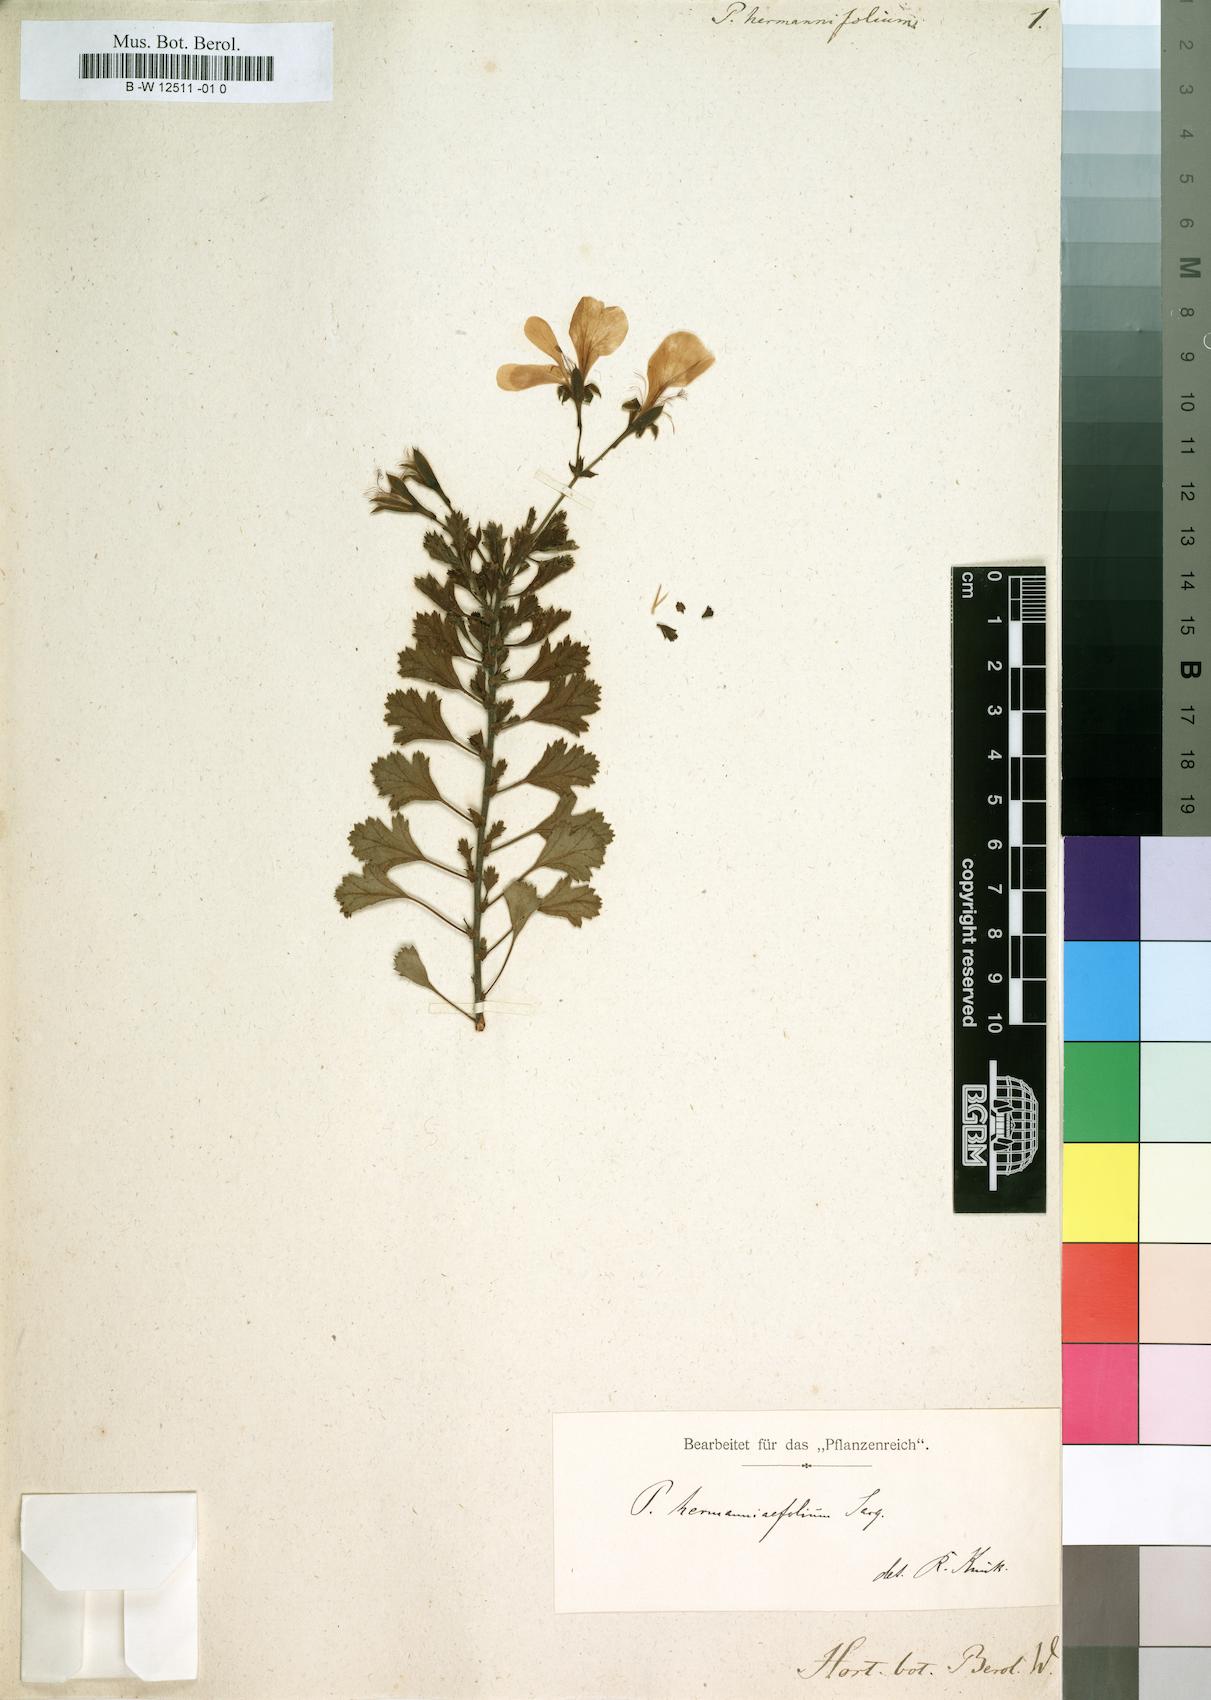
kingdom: Plantae
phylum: Tracheophyta
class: Magnoliopsida
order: Geraniales
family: Geraniaceae
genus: Pelargonium
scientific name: Pelargonium hermaniifolium
